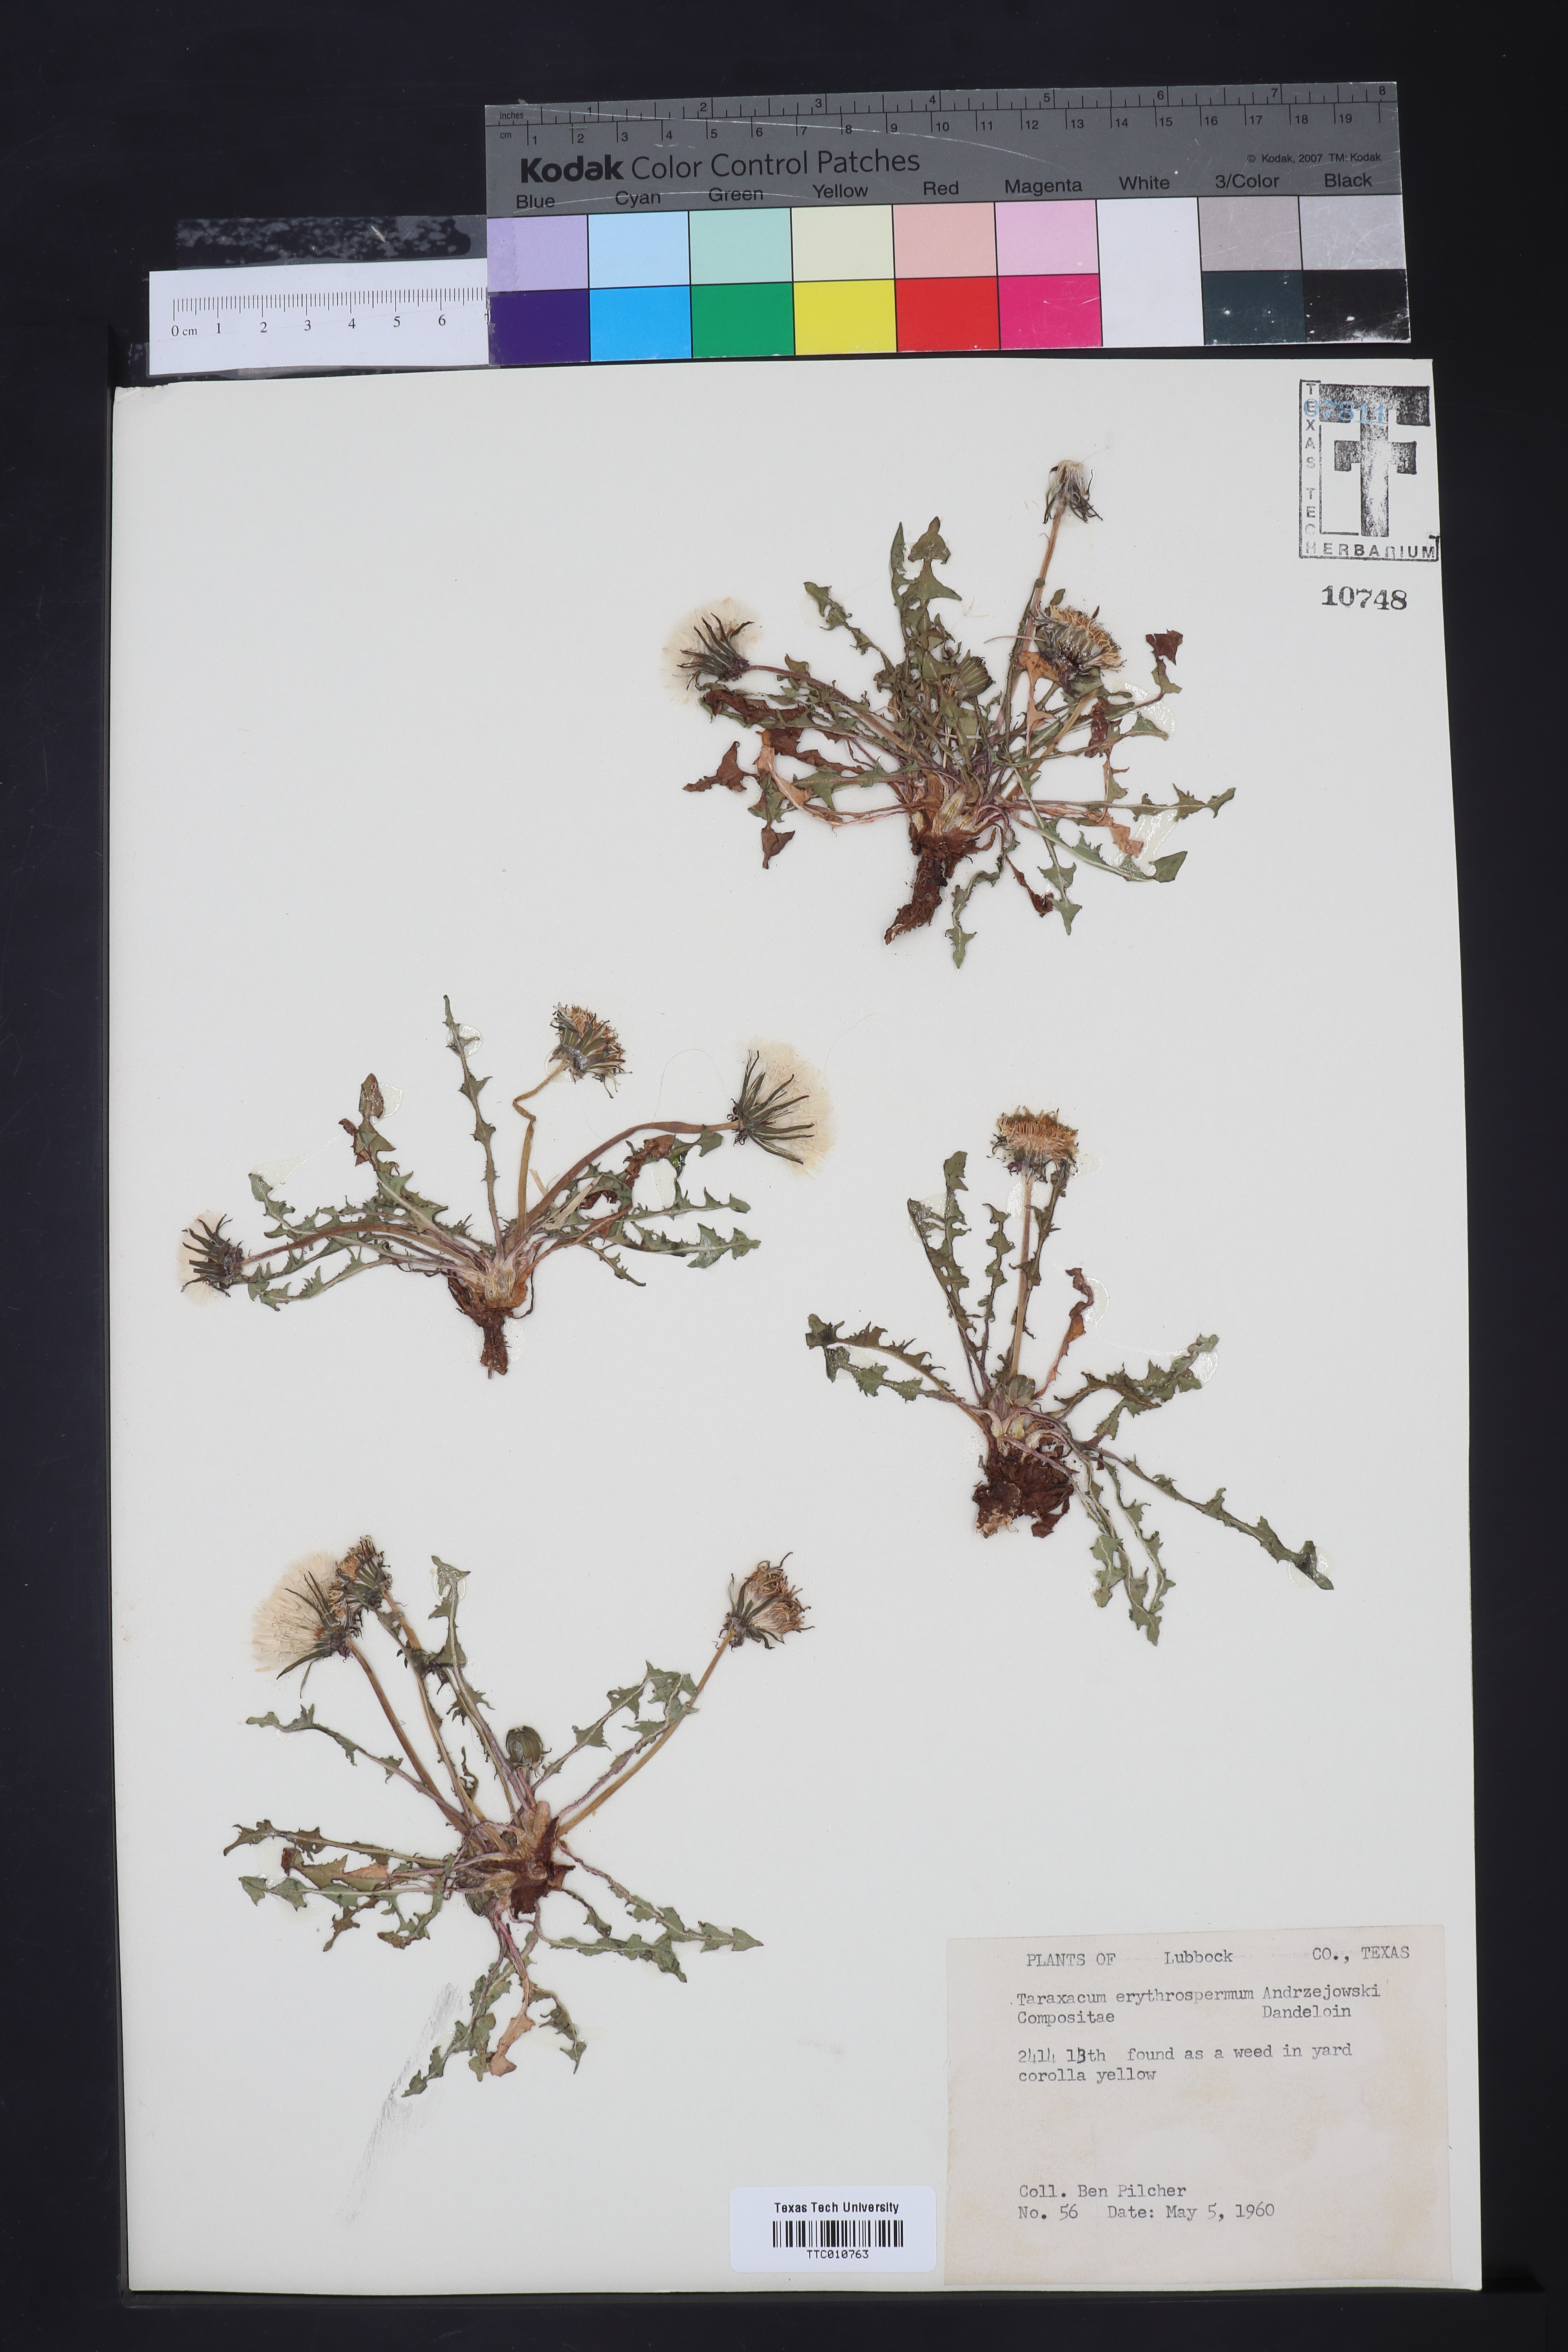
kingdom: Plantae
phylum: Tracheophyta
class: Magnoliopsida
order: Asterales
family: Asteraceae
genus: Taraxacum
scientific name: Taraxacum erythrospermum
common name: Rock dandelion
